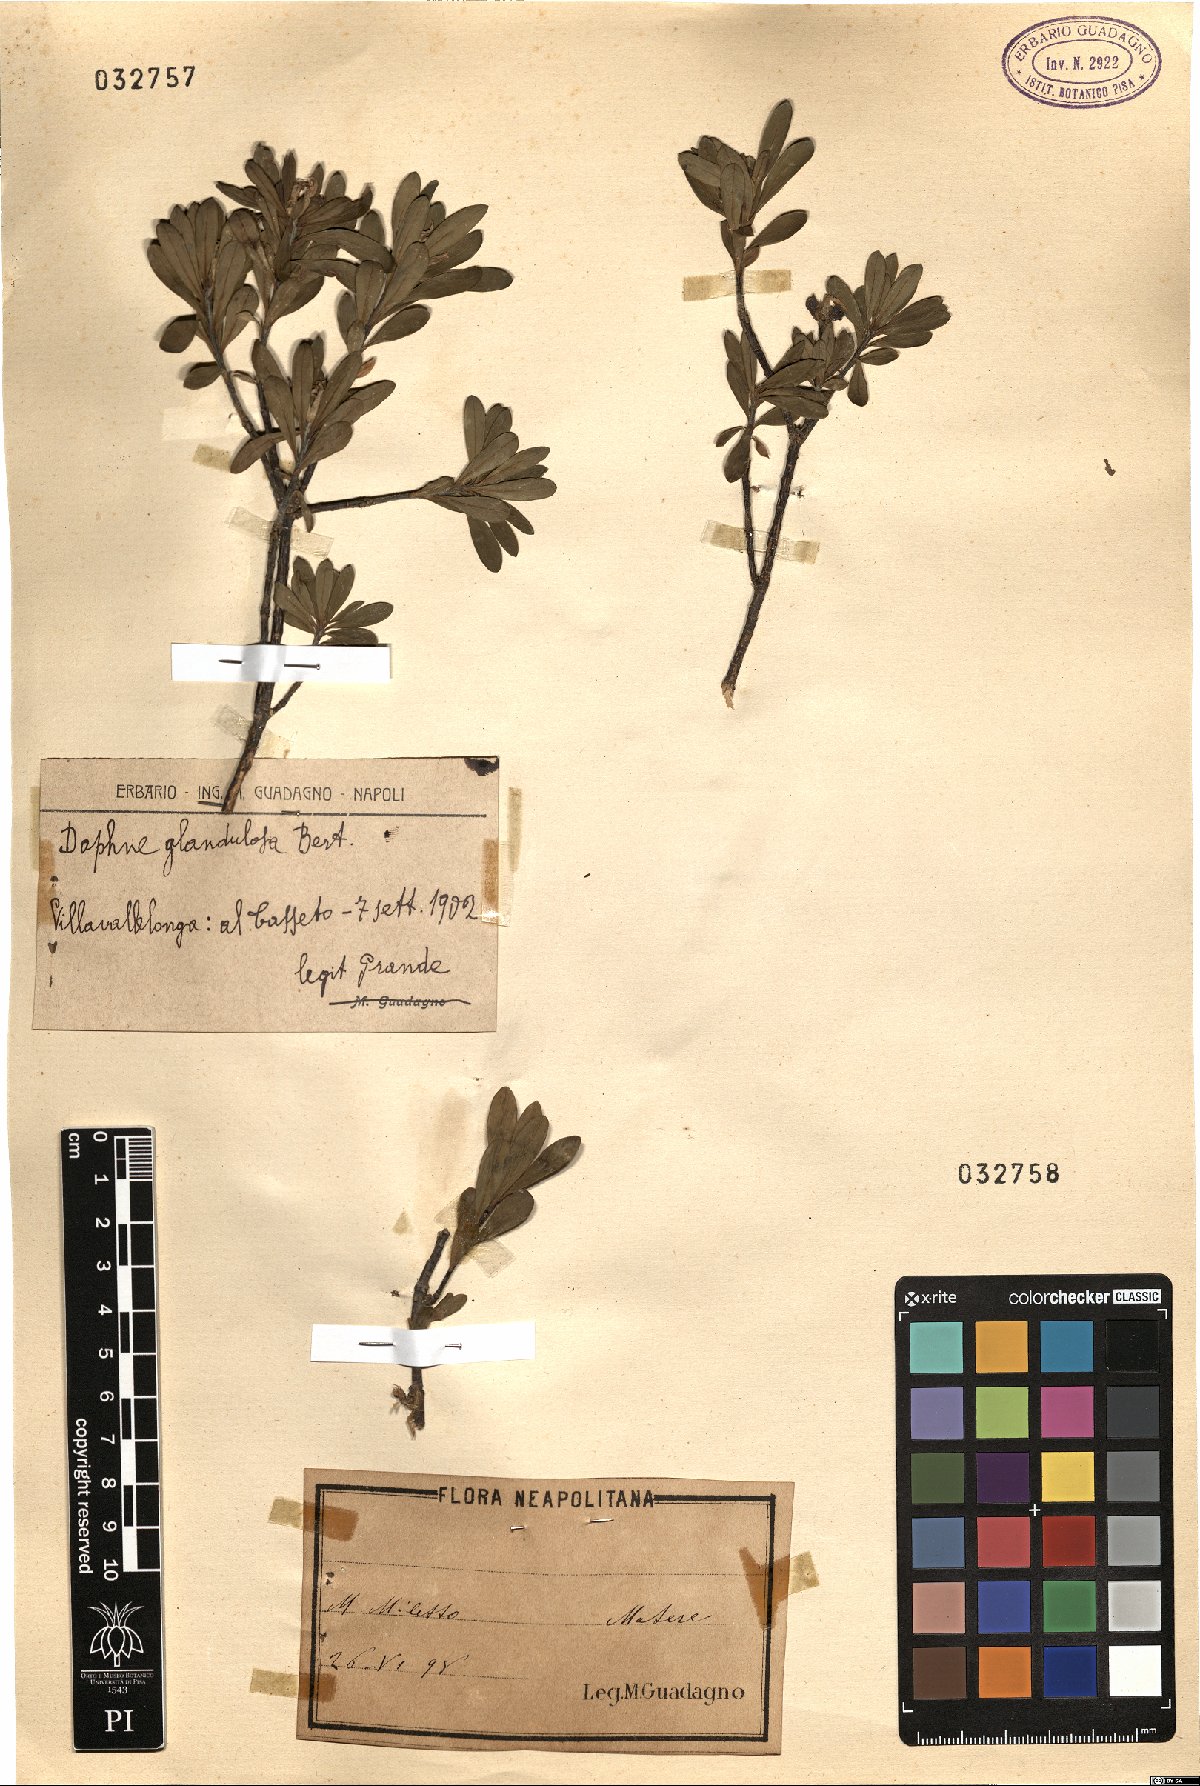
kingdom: Plantae
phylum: Tracheophyta
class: Magnoliopsida
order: Malvales
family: Thymelaeaceae
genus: Daphne
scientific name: Daphne oleoides
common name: Spurge-olive
